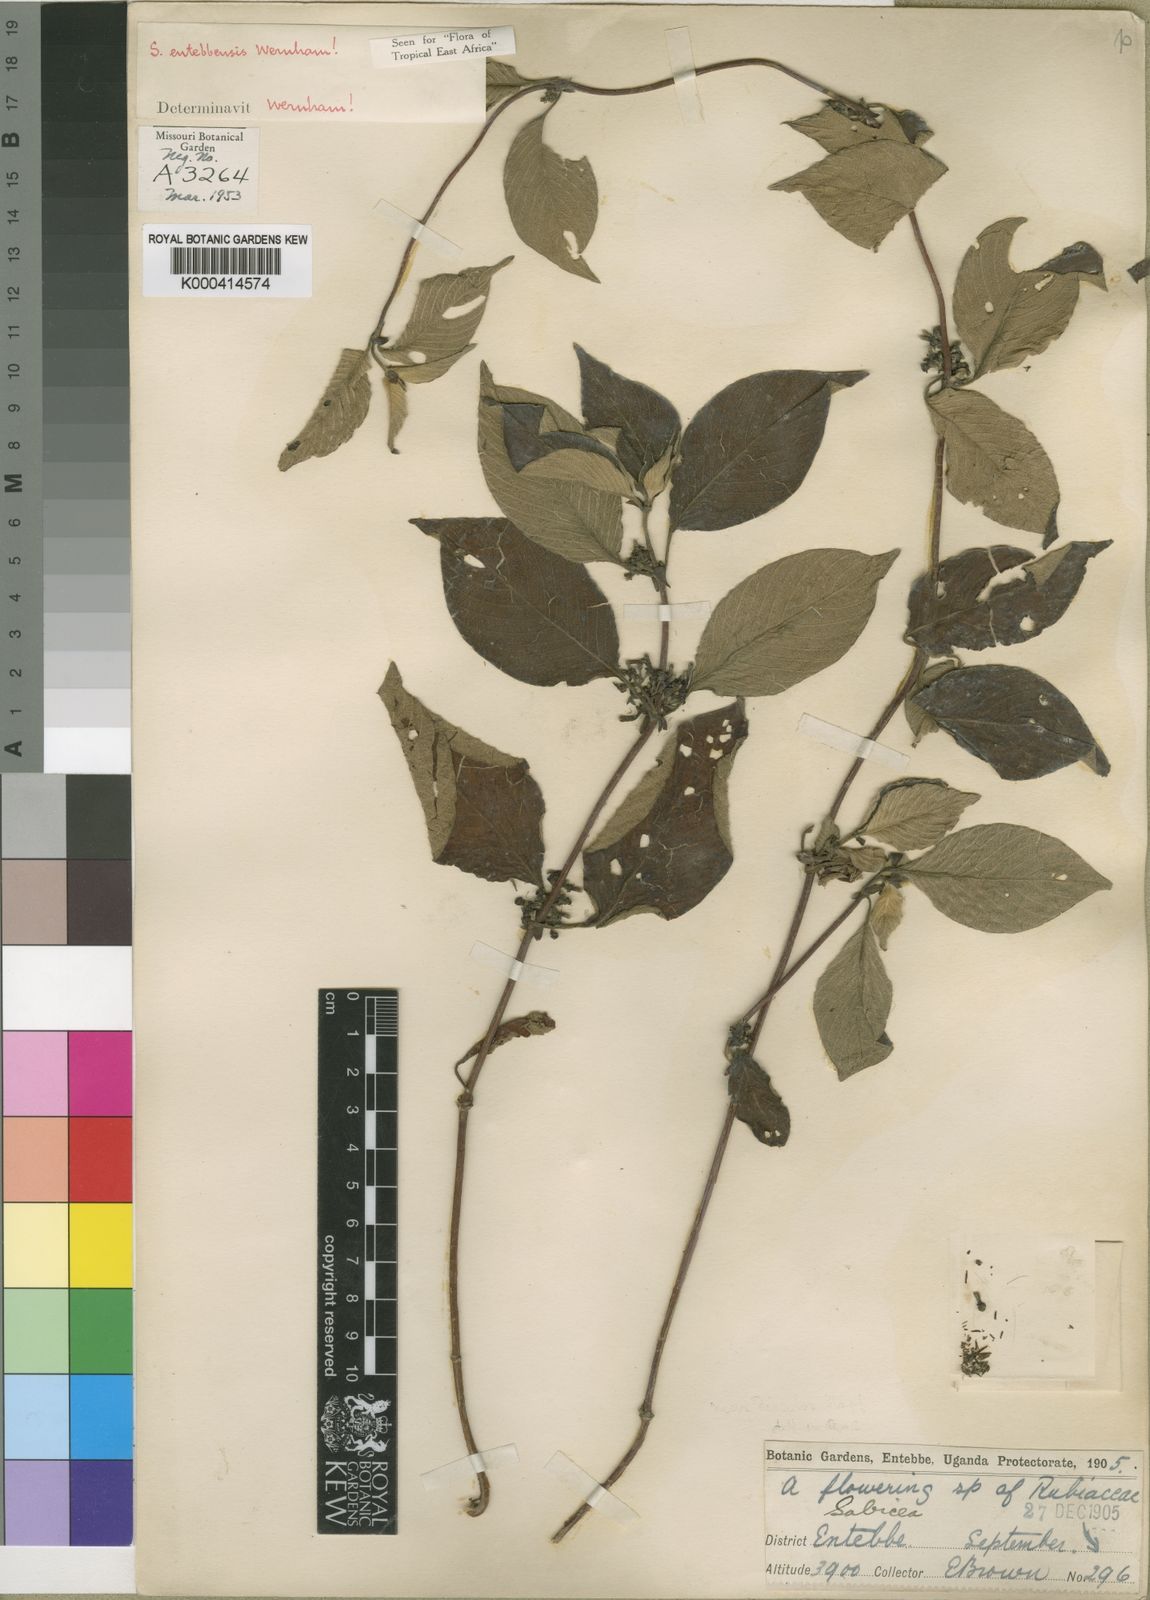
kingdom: Plantae
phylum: Tracheophyta
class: Magnoliopsida
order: Gentianales
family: Rubiaceae
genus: Sabicea
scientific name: Sabicea entebbensis
